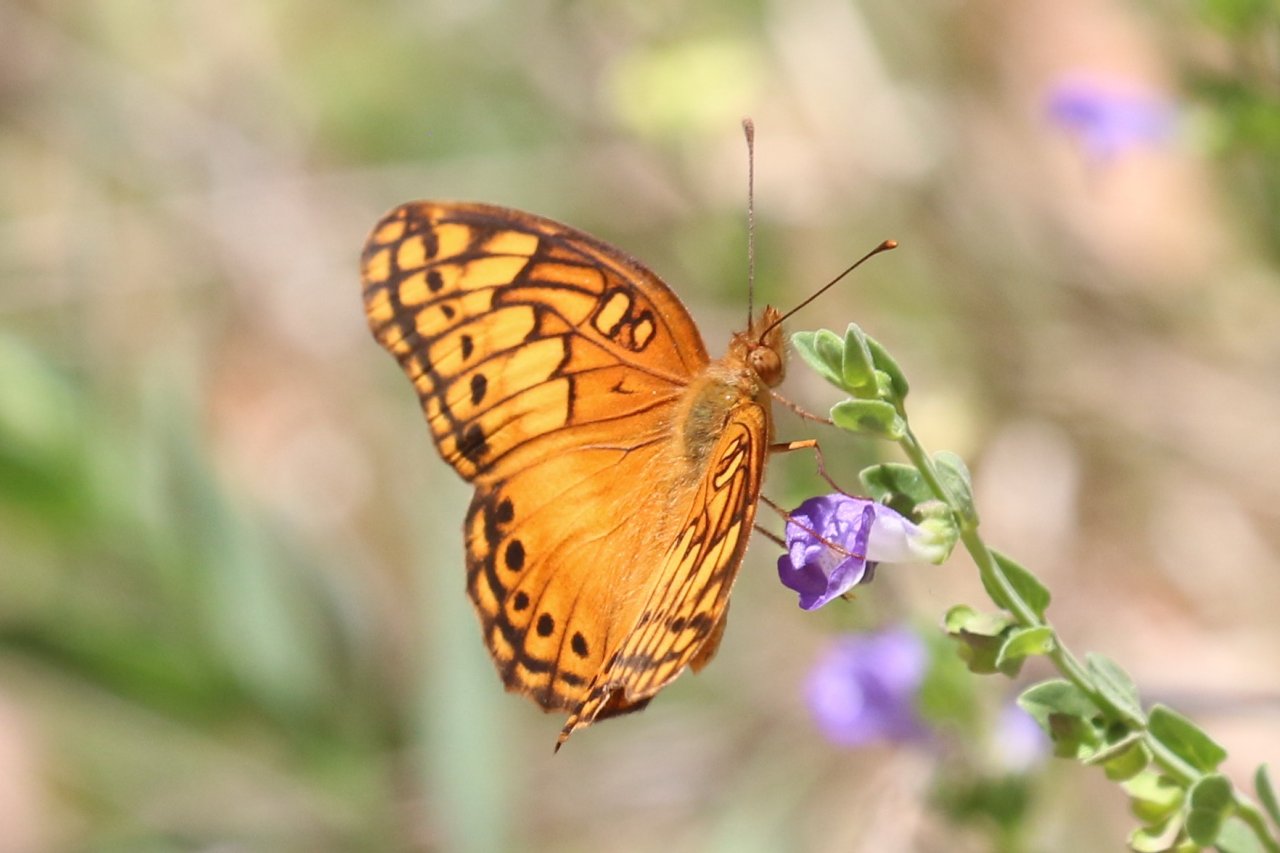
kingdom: Animalia
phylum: Arthropoda
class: Insecta
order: Lepidoptera
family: Nymphalidae
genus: Euptoieta
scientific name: Euptoieta hegesia
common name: Mexican Fritillary
